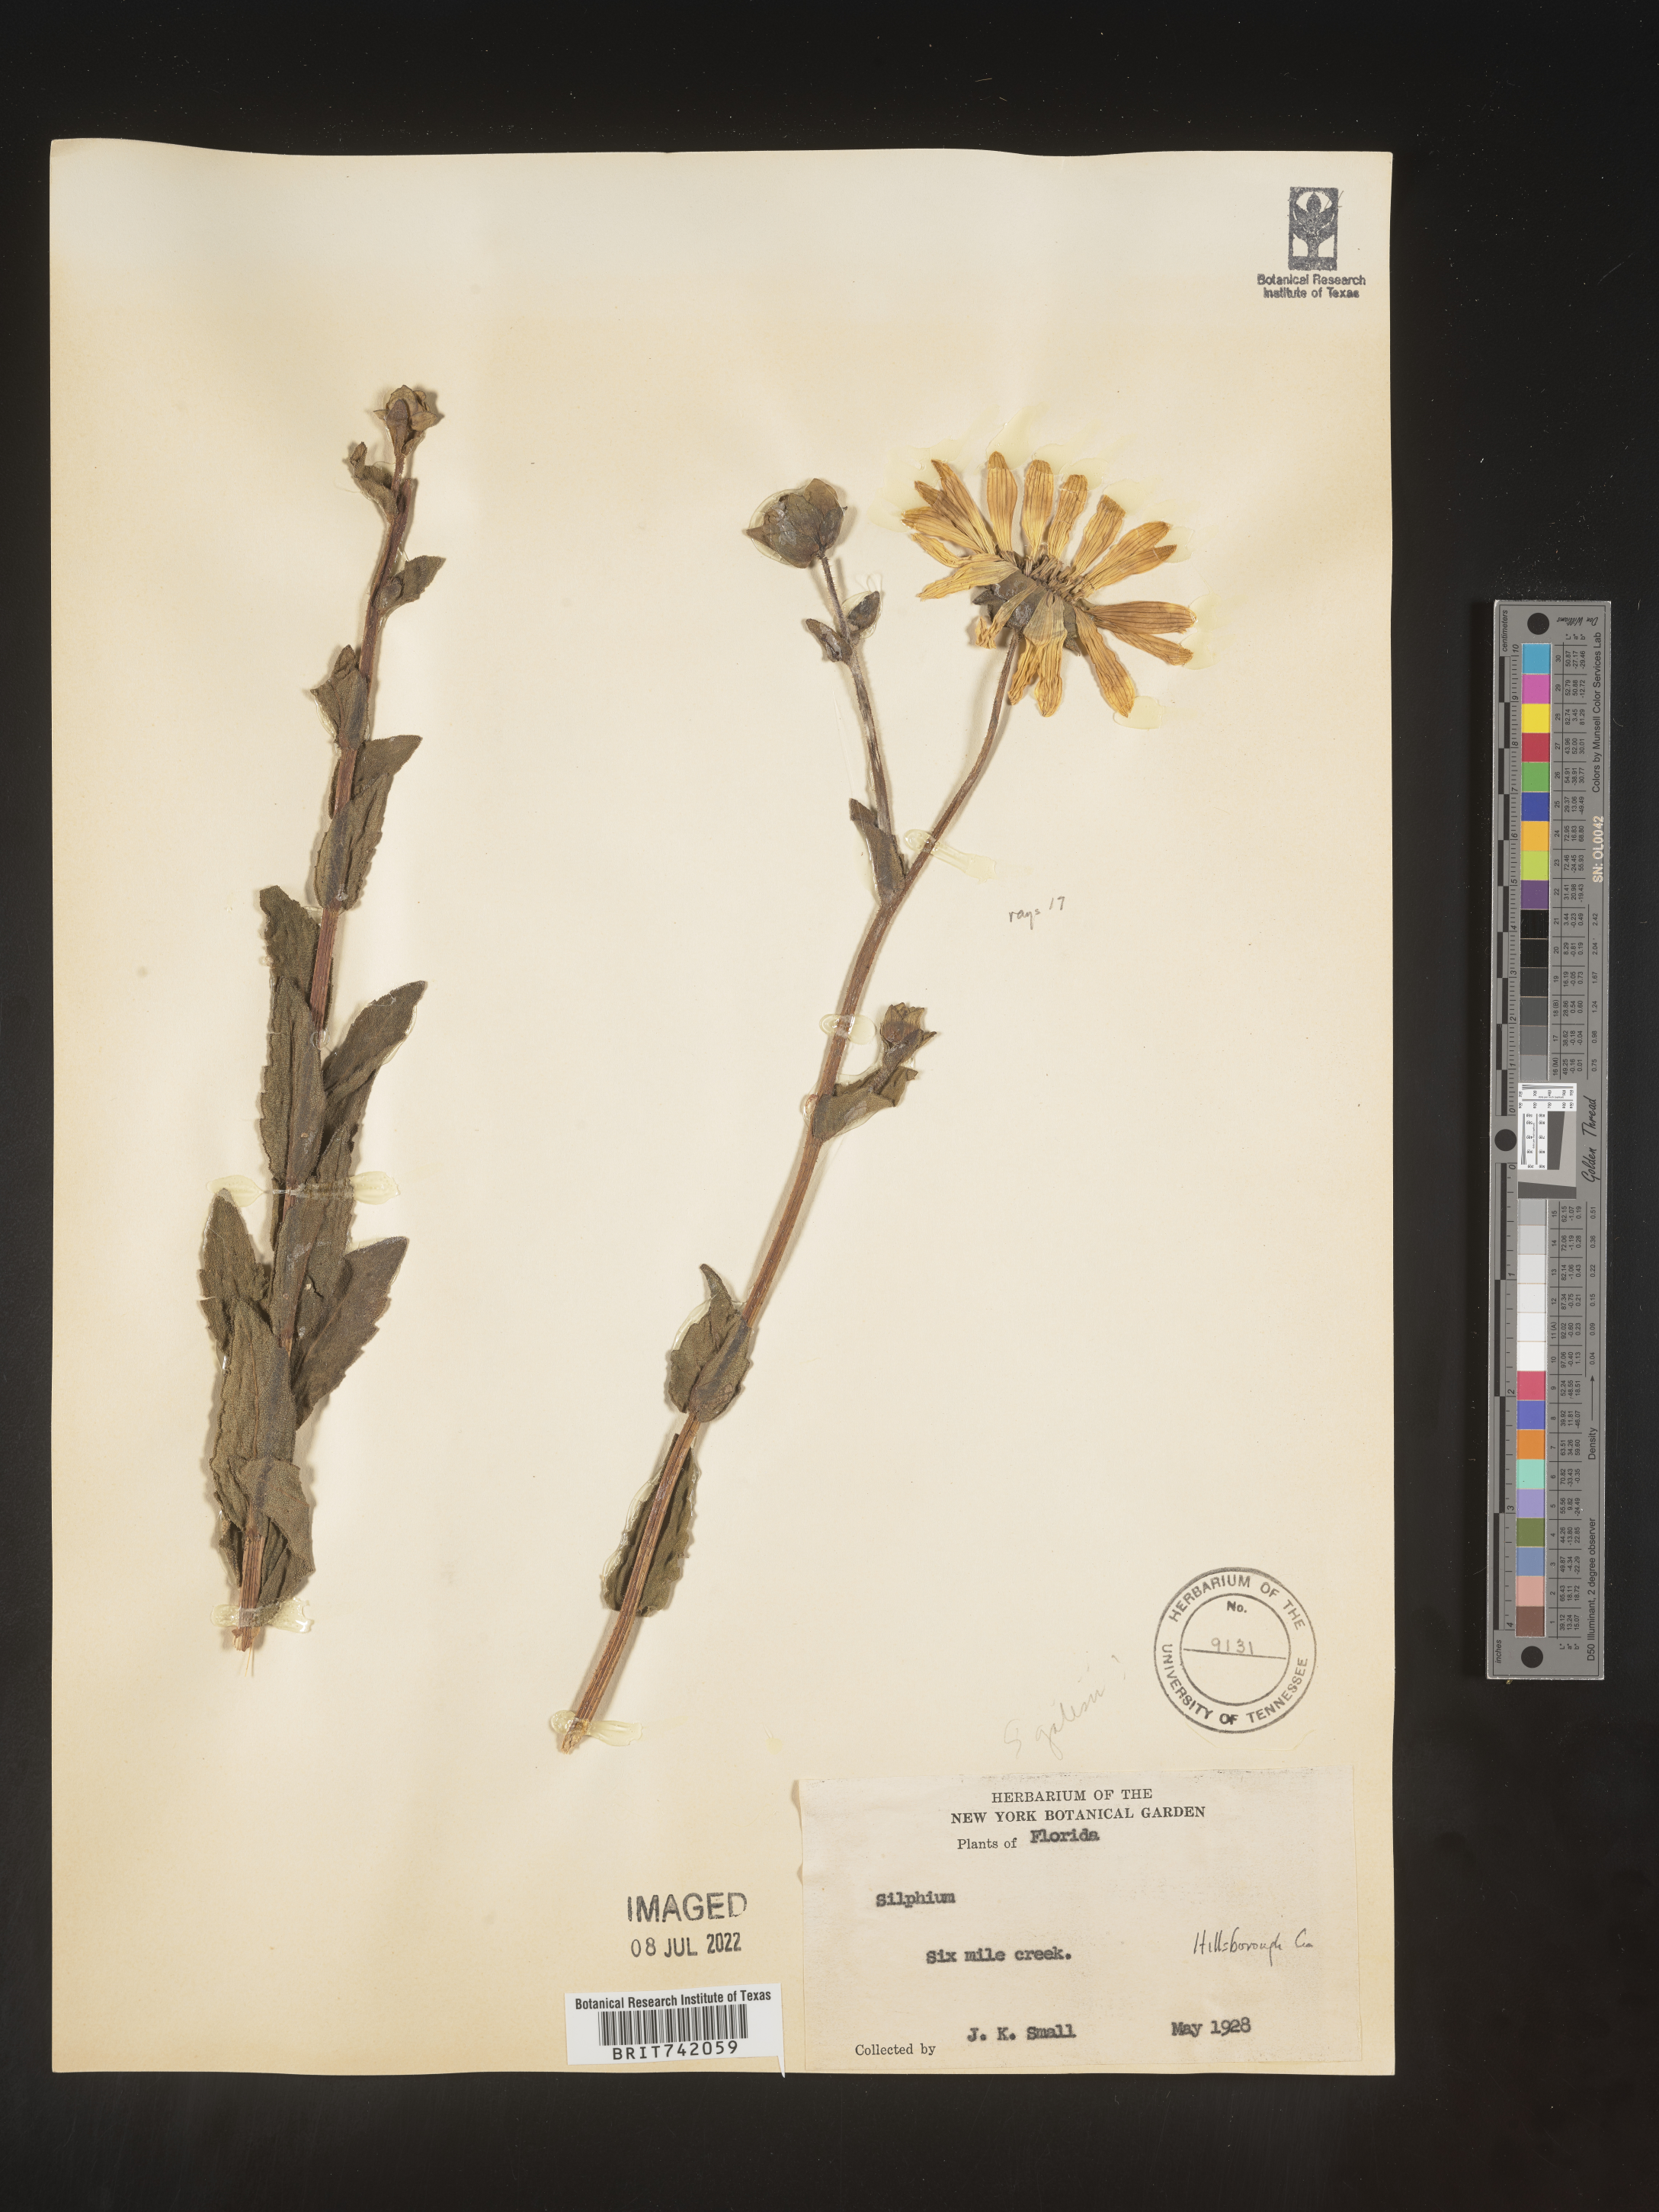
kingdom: Plantae
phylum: Tracheophyta
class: Magnoliopsida
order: Asterales
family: Asteraceae
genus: Silphium
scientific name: Silphium asteriscus
